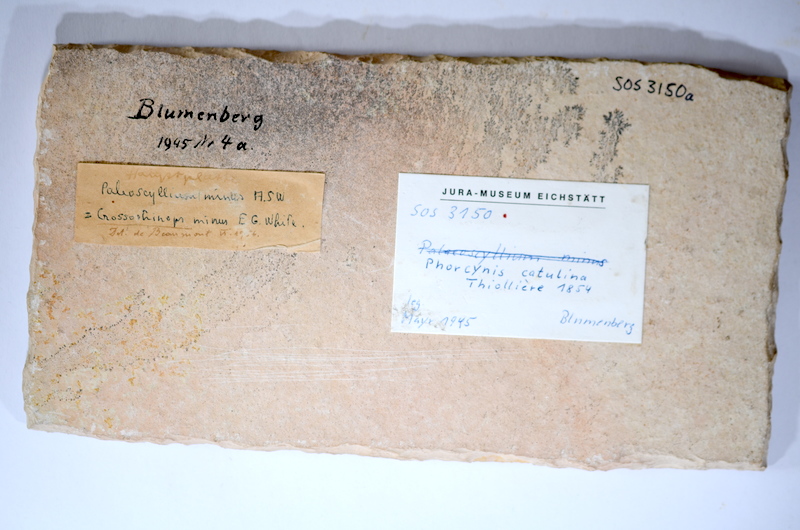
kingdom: Animalia
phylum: Chordata
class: Elasmobranchii
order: Orectolobiformes
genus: Phorcynis
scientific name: Phorcynis catulina
